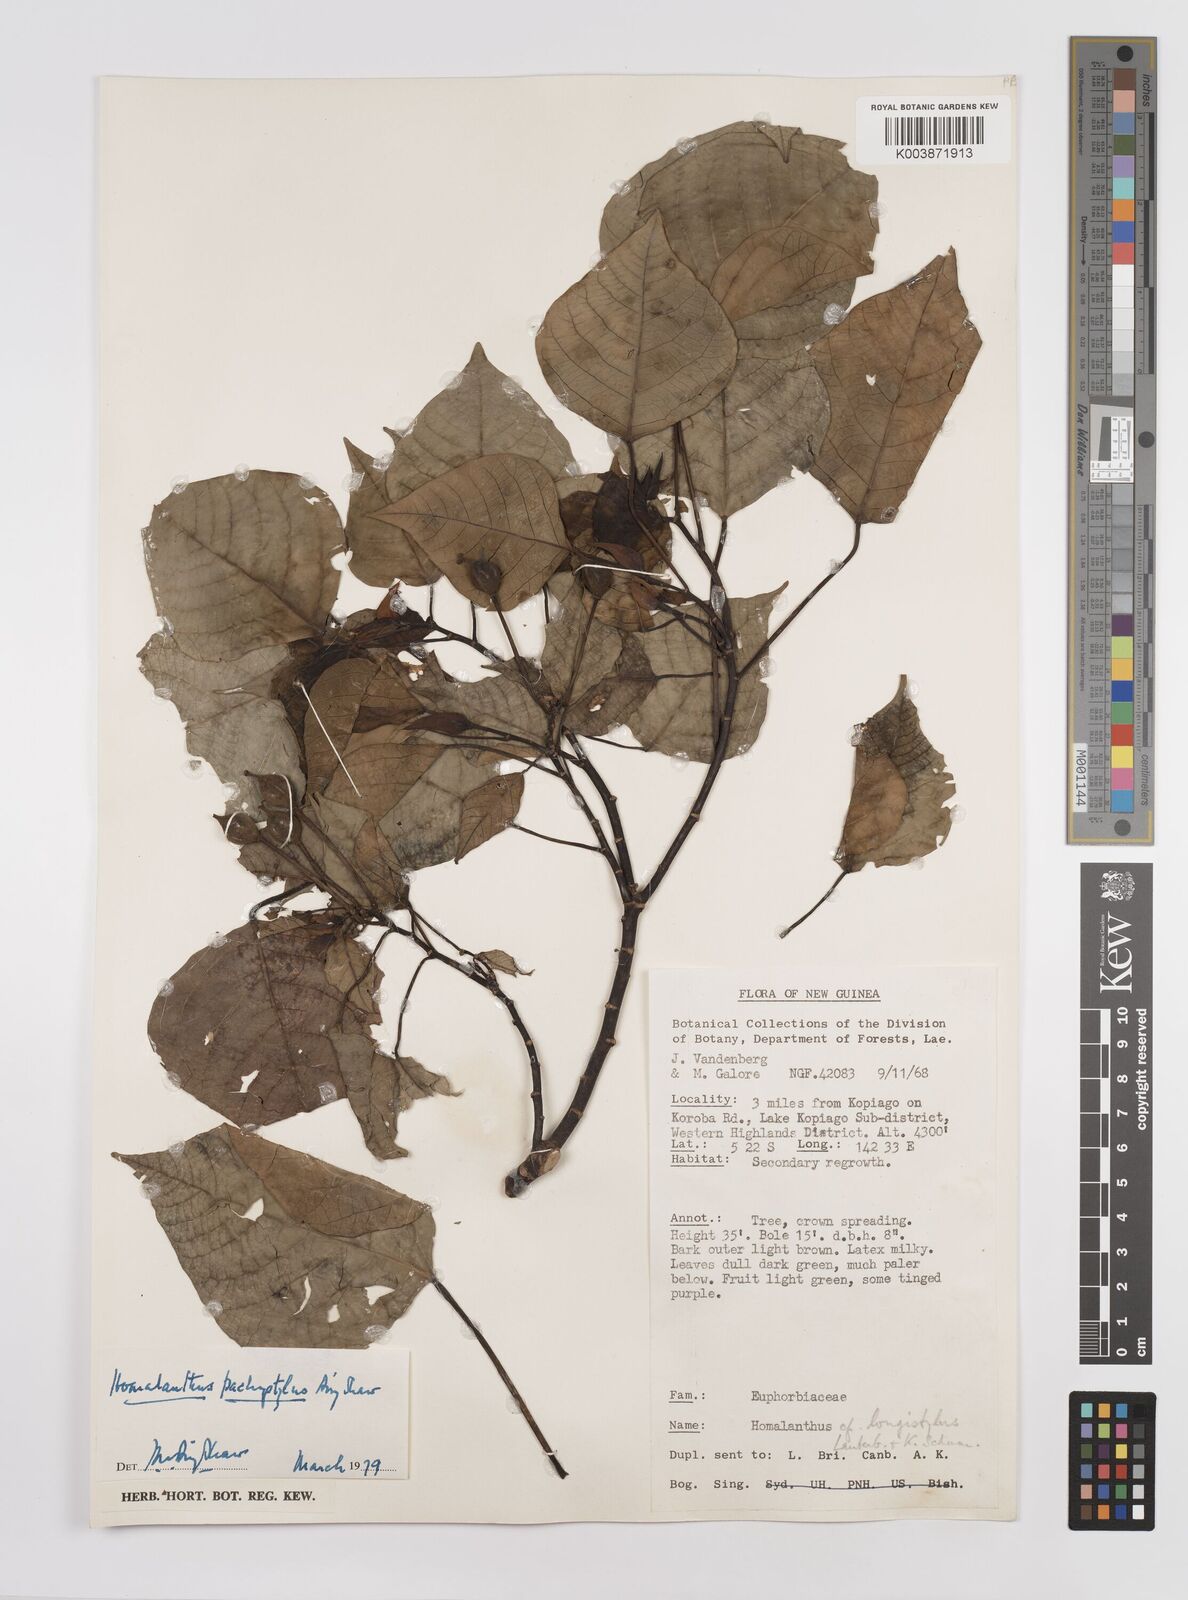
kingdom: Plantae
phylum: Tracheophyta
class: Magnoliopsida
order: Malpighiales
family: Euphorbiaceae
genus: Homalanthus
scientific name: Homalanthus novoguineensis
